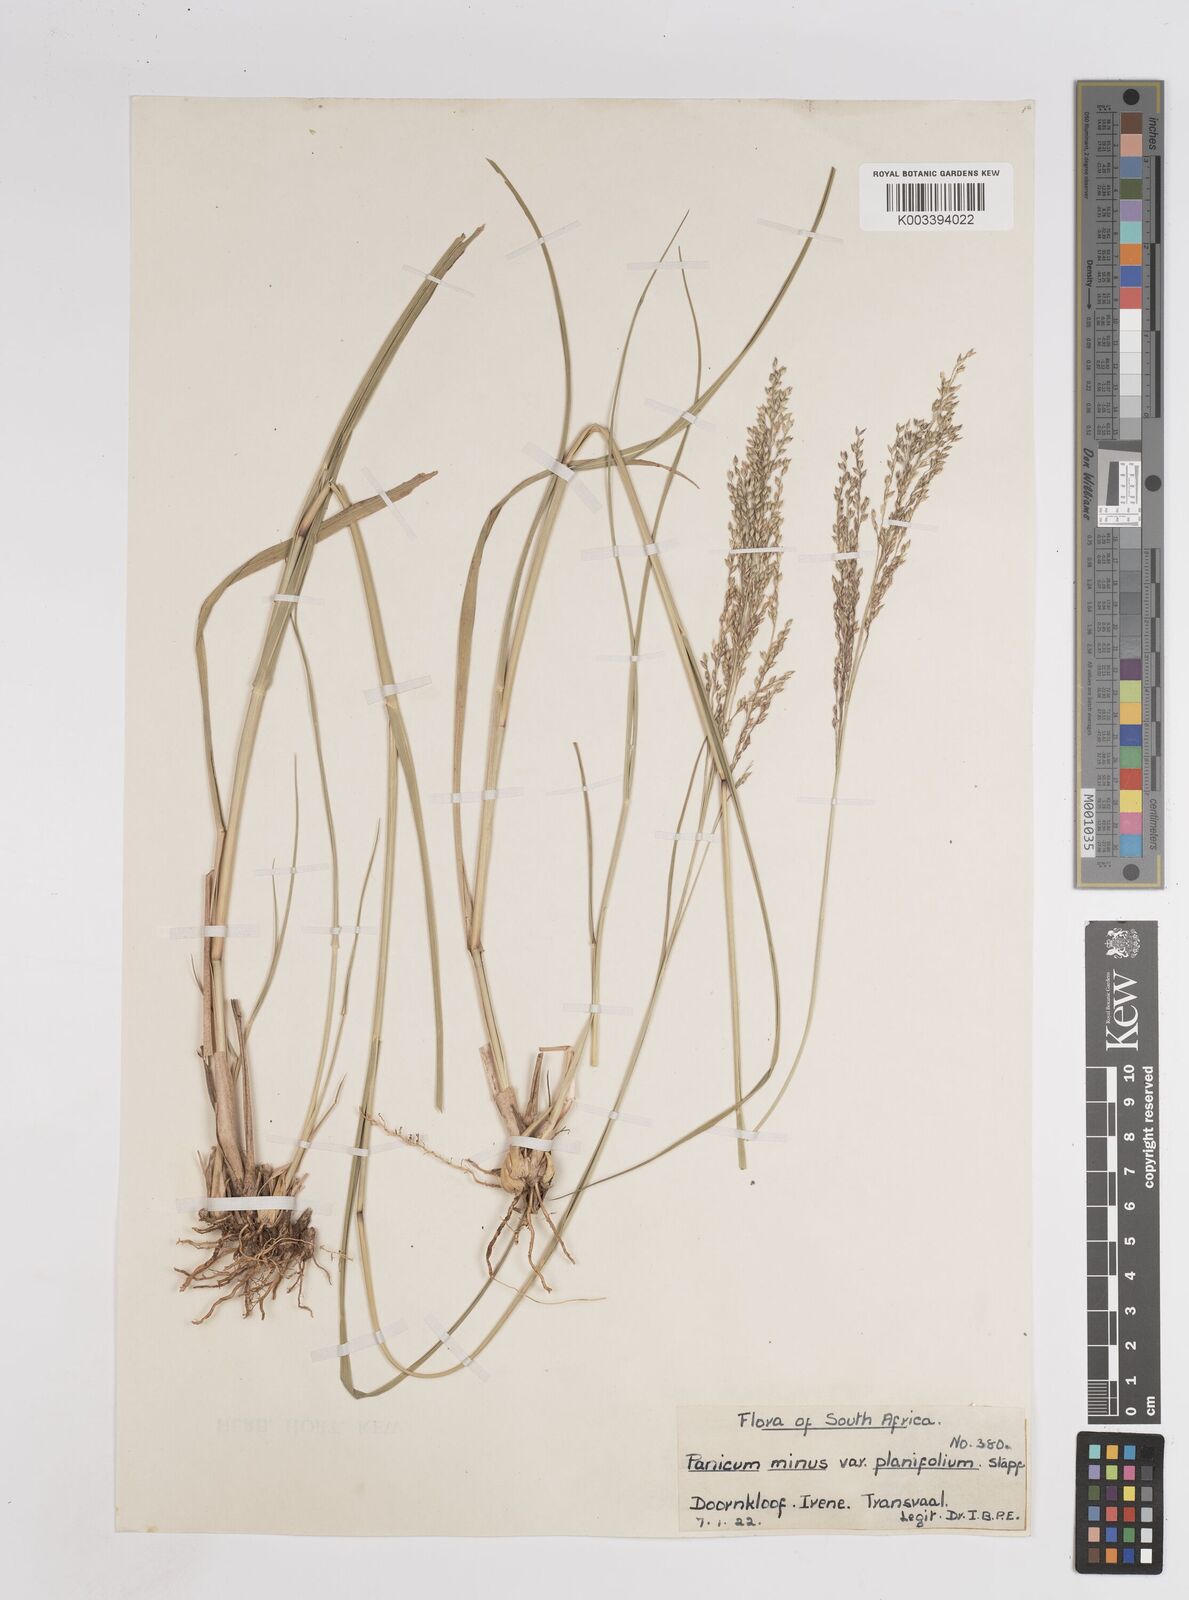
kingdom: Plantae
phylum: Tracheophyta
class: Liliopsida
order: Poales
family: Poaceae
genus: Panicum
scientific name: Panicum
